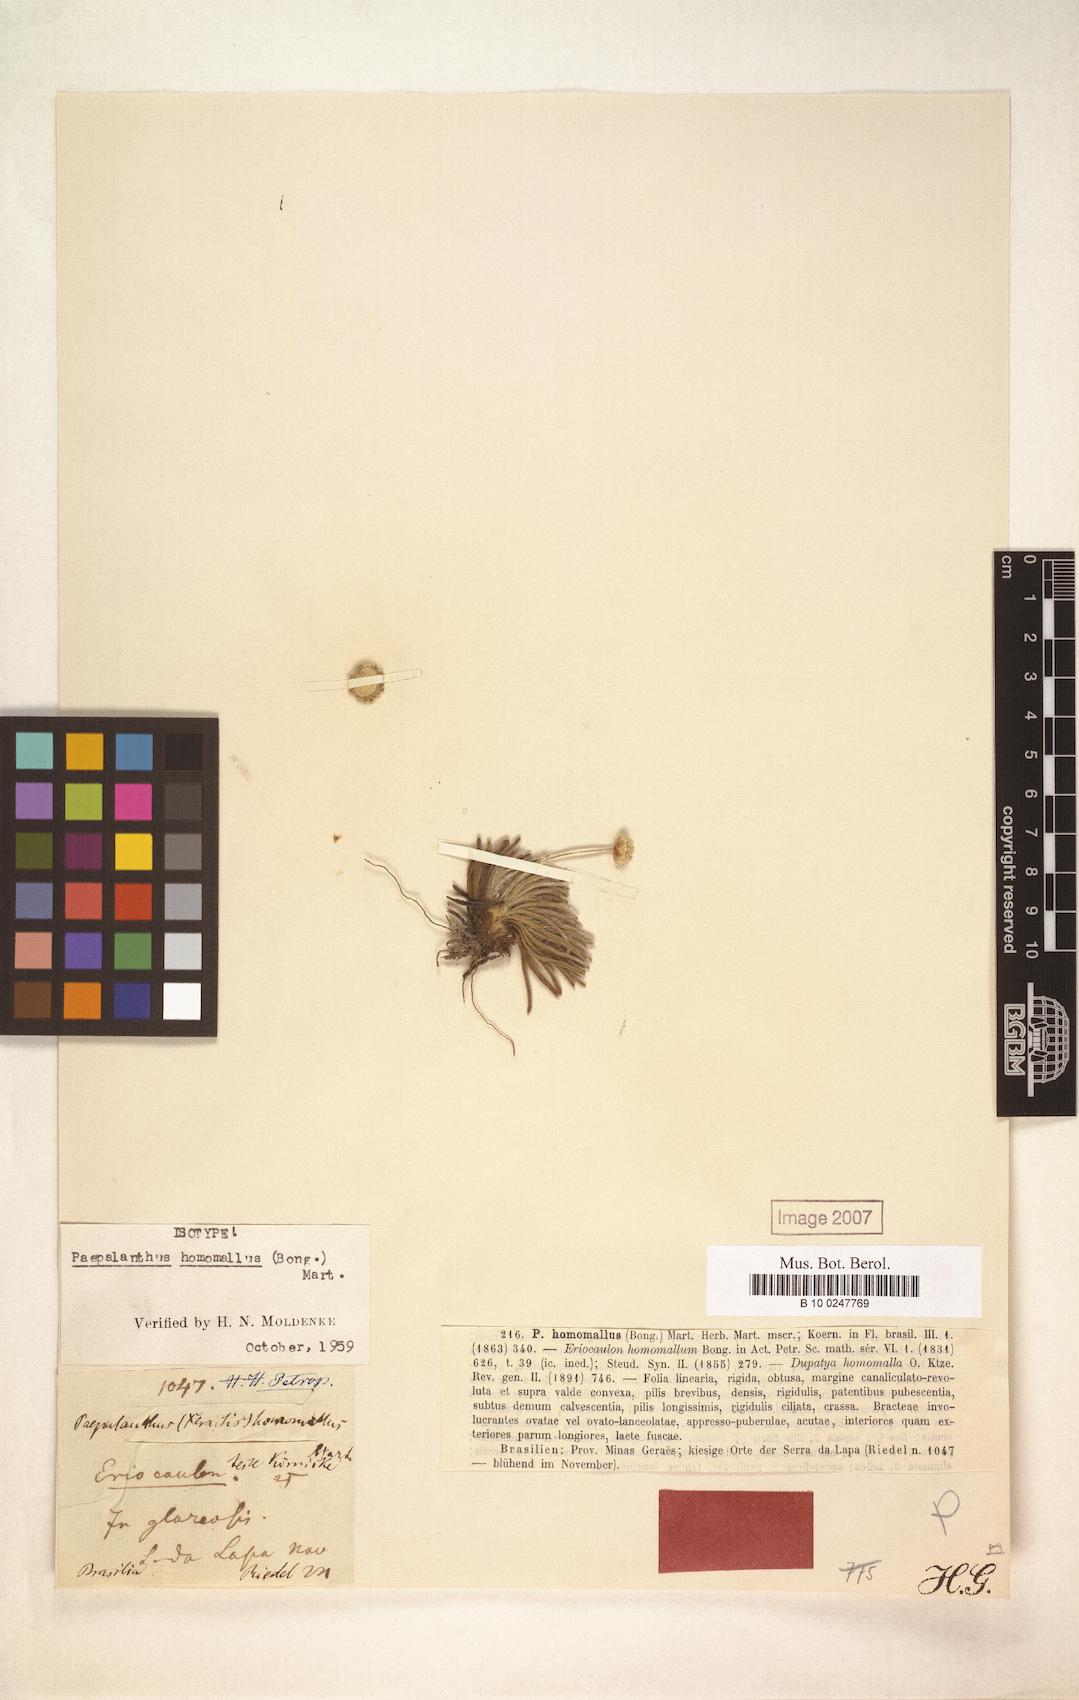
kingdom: Plantae
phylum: Tracheophyta
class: Liliopsida
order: Poales
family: Eriocaulaceae
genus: Paepalanthus
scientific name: Paepalanthus homomallus
